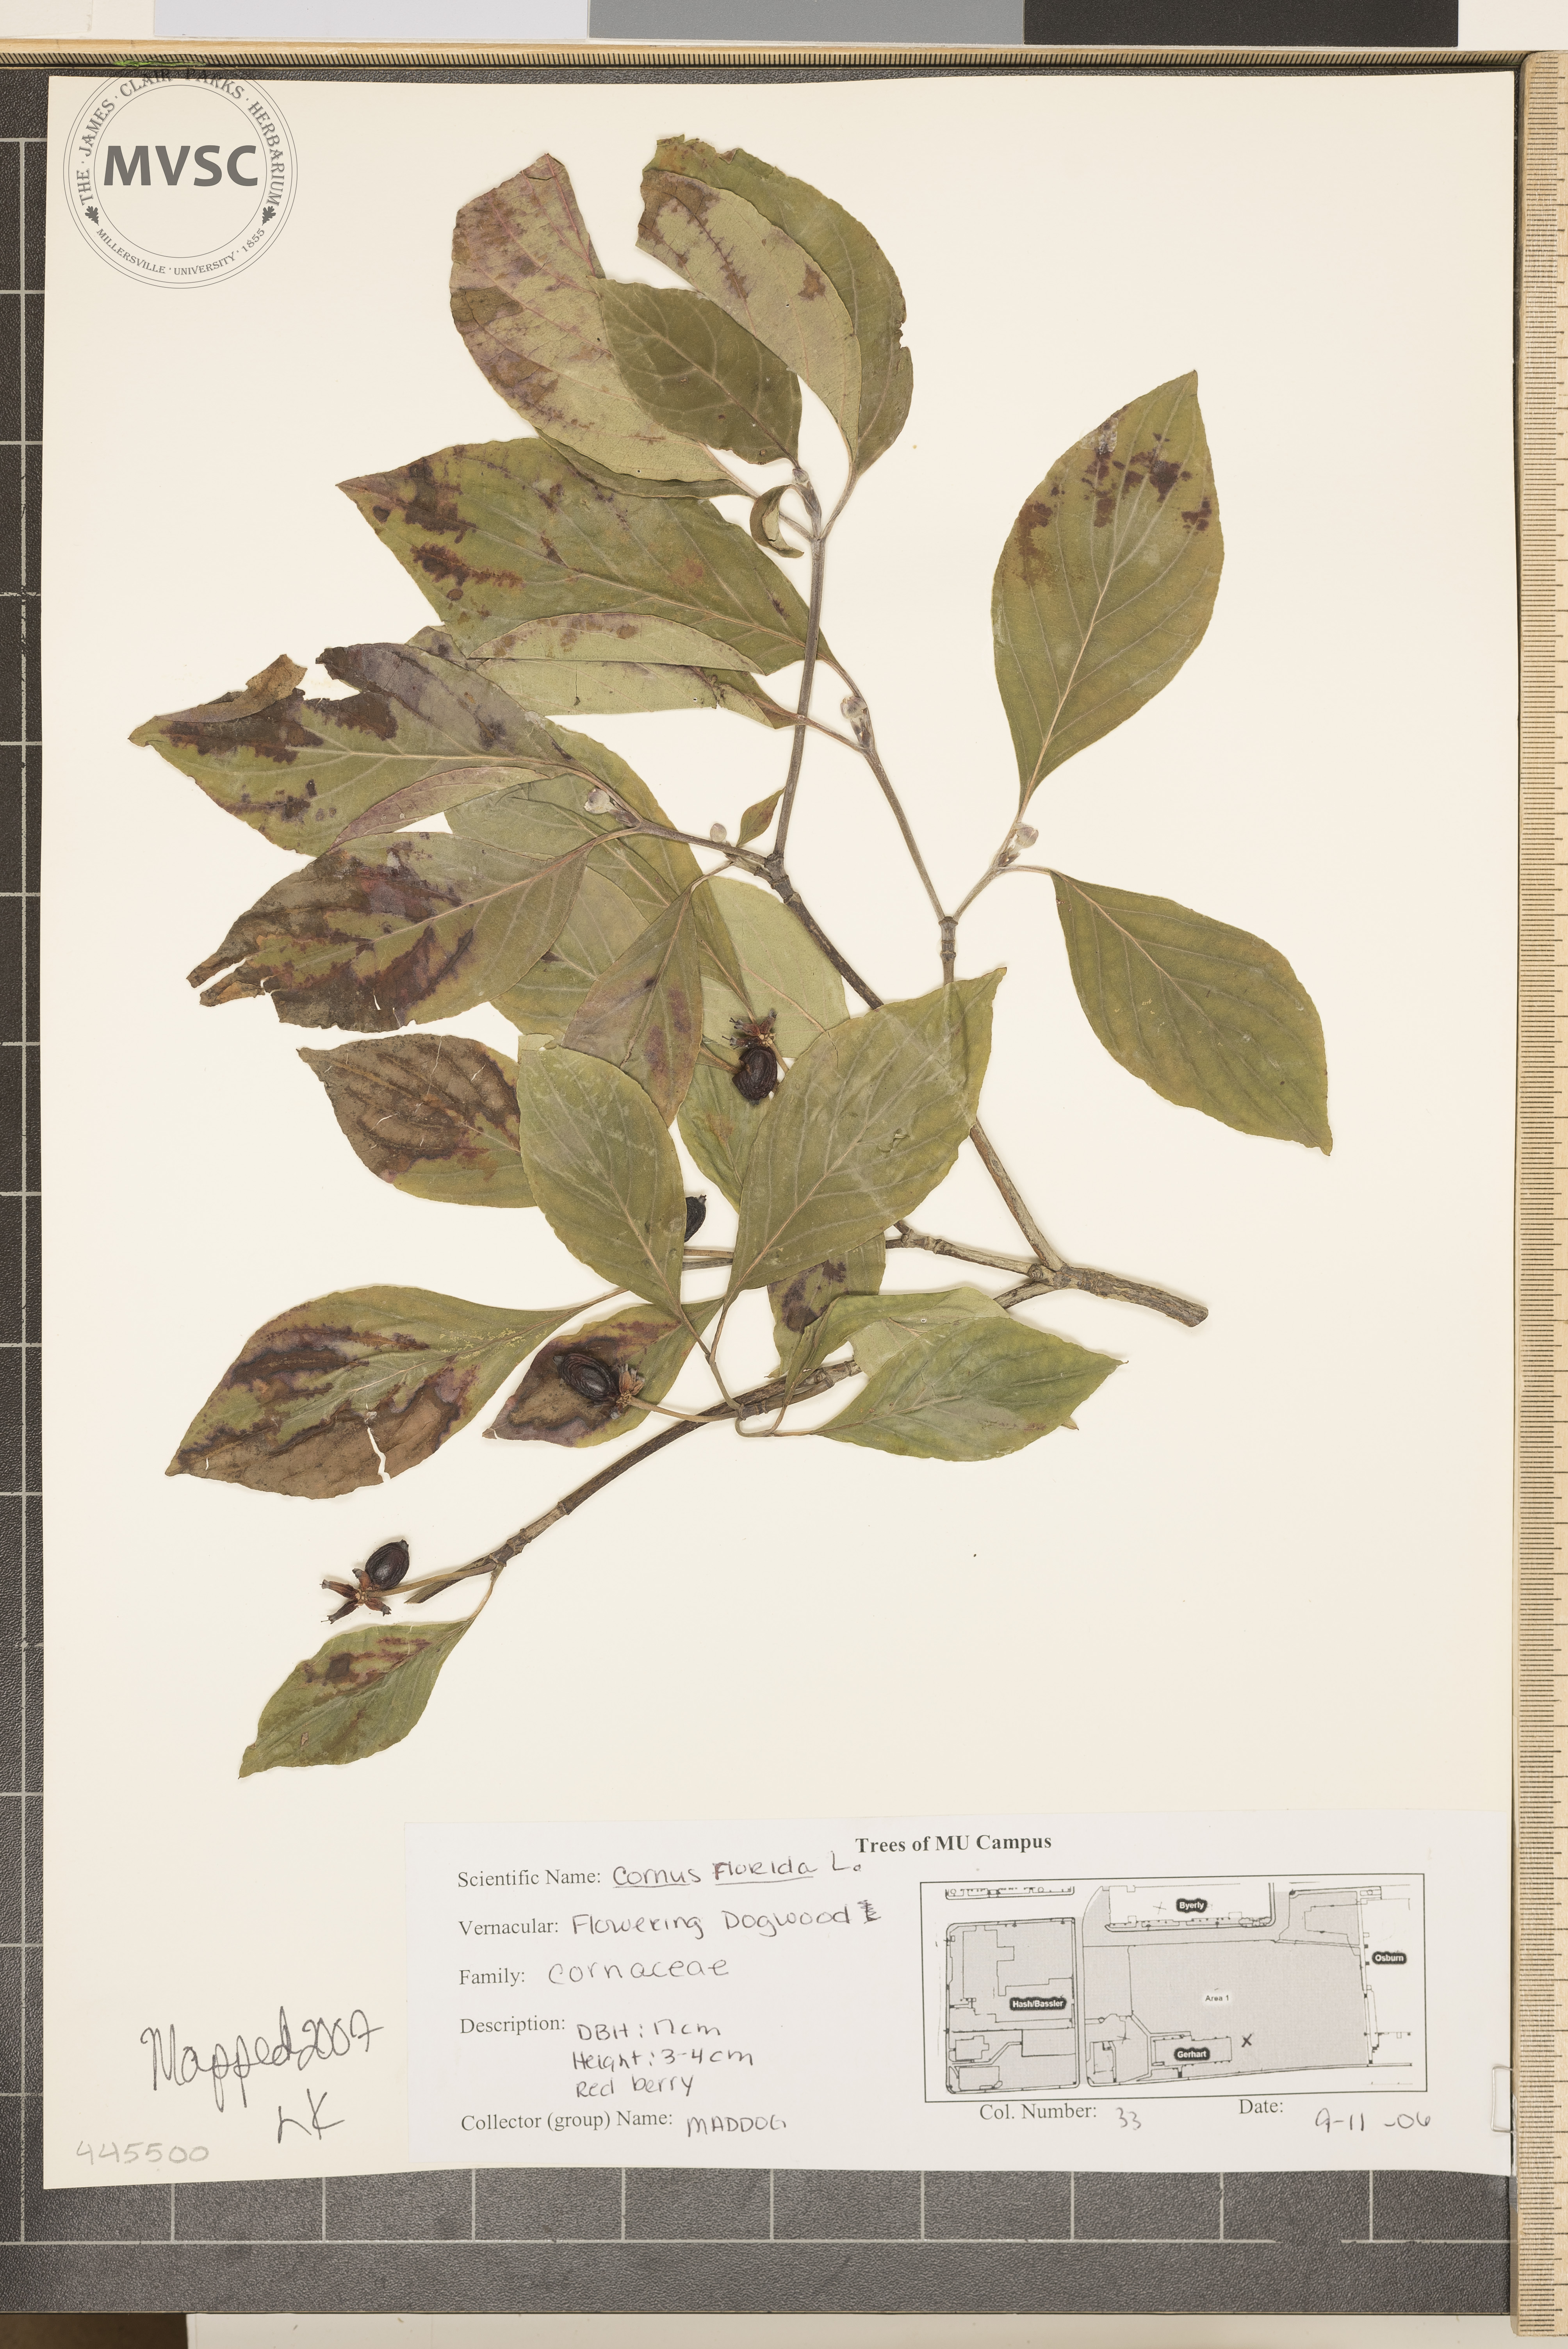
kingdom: Plantae
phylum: Tracheophyta
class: Magnoliopsida
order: Cornales
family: Cornaceae
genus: Cornus
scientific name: Cornus florida
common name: Flowering Dogwood
